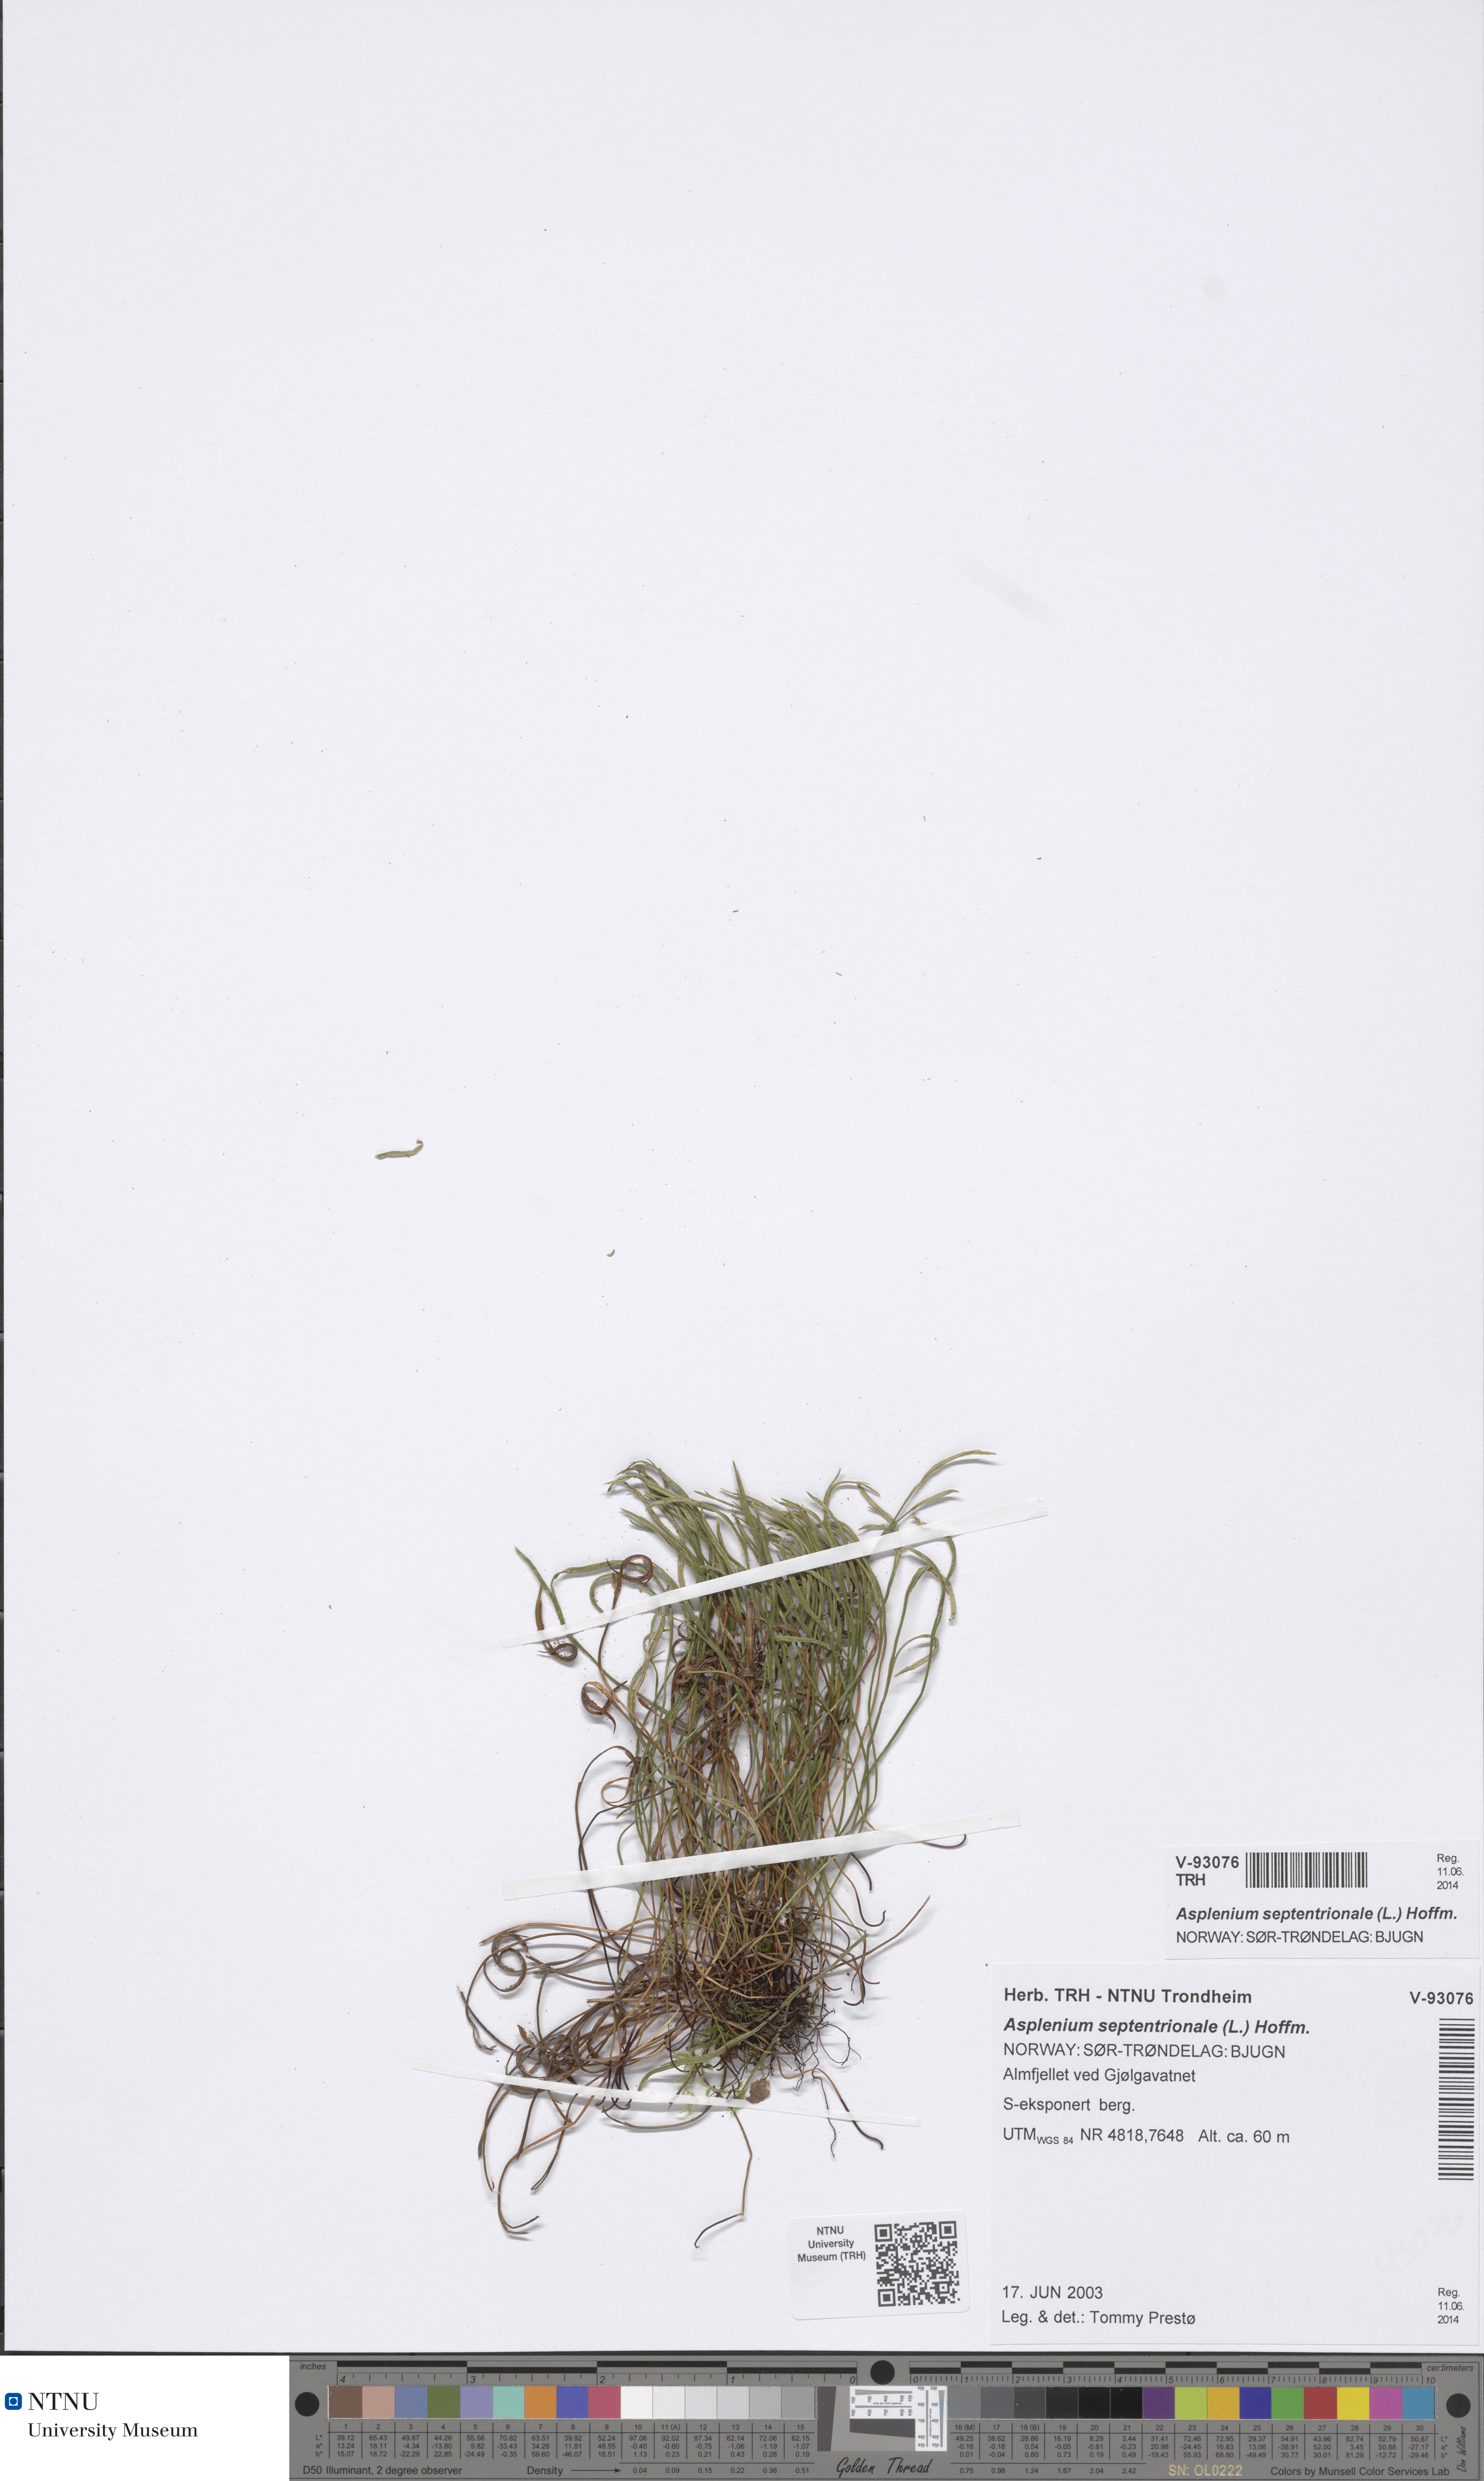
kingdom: Plantae
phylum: Tracheophyta
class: Polypodiopsida
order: Polypodiales
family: Aspleniaceae
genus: Asplenium
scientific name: Asplenium septentrionale
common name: Forked spleenwort
